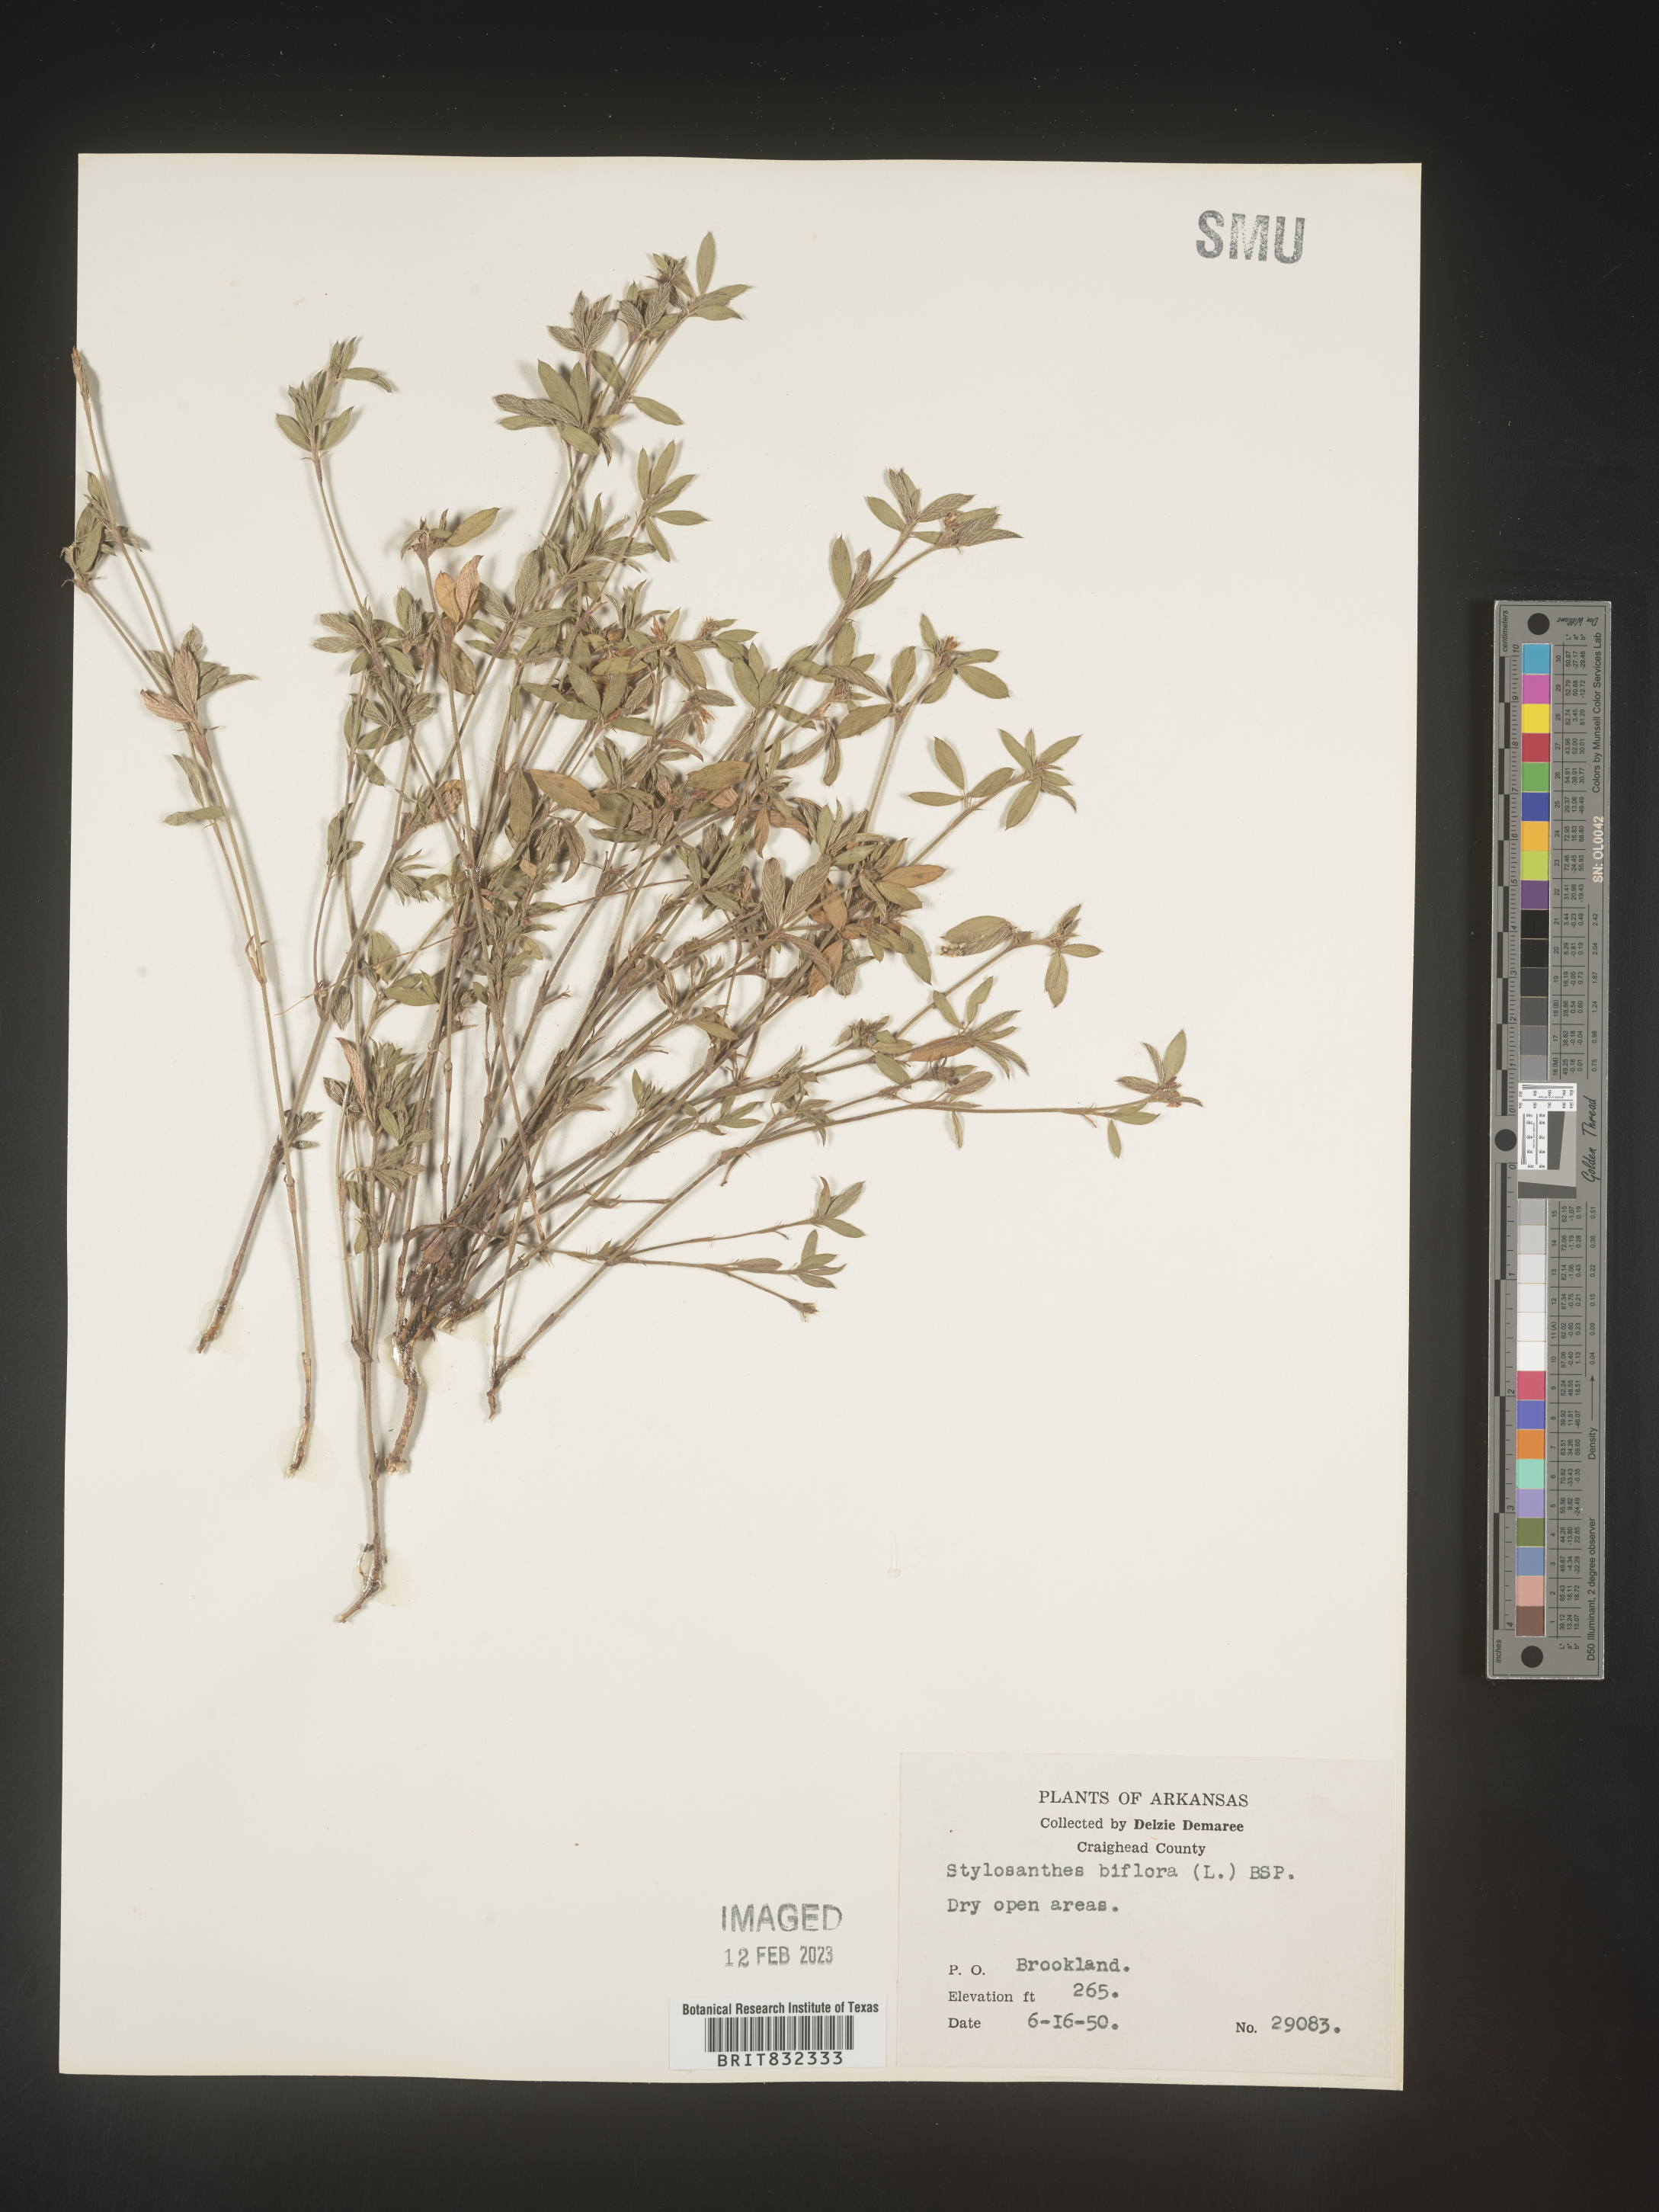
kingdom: Plantae
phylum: Tracheophyta
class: Magnoliopsida
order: Fabales
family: Fabaceae
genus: Stylosanthes
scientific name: Stylosanthes biflora
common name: Two-flower pencil-flower
